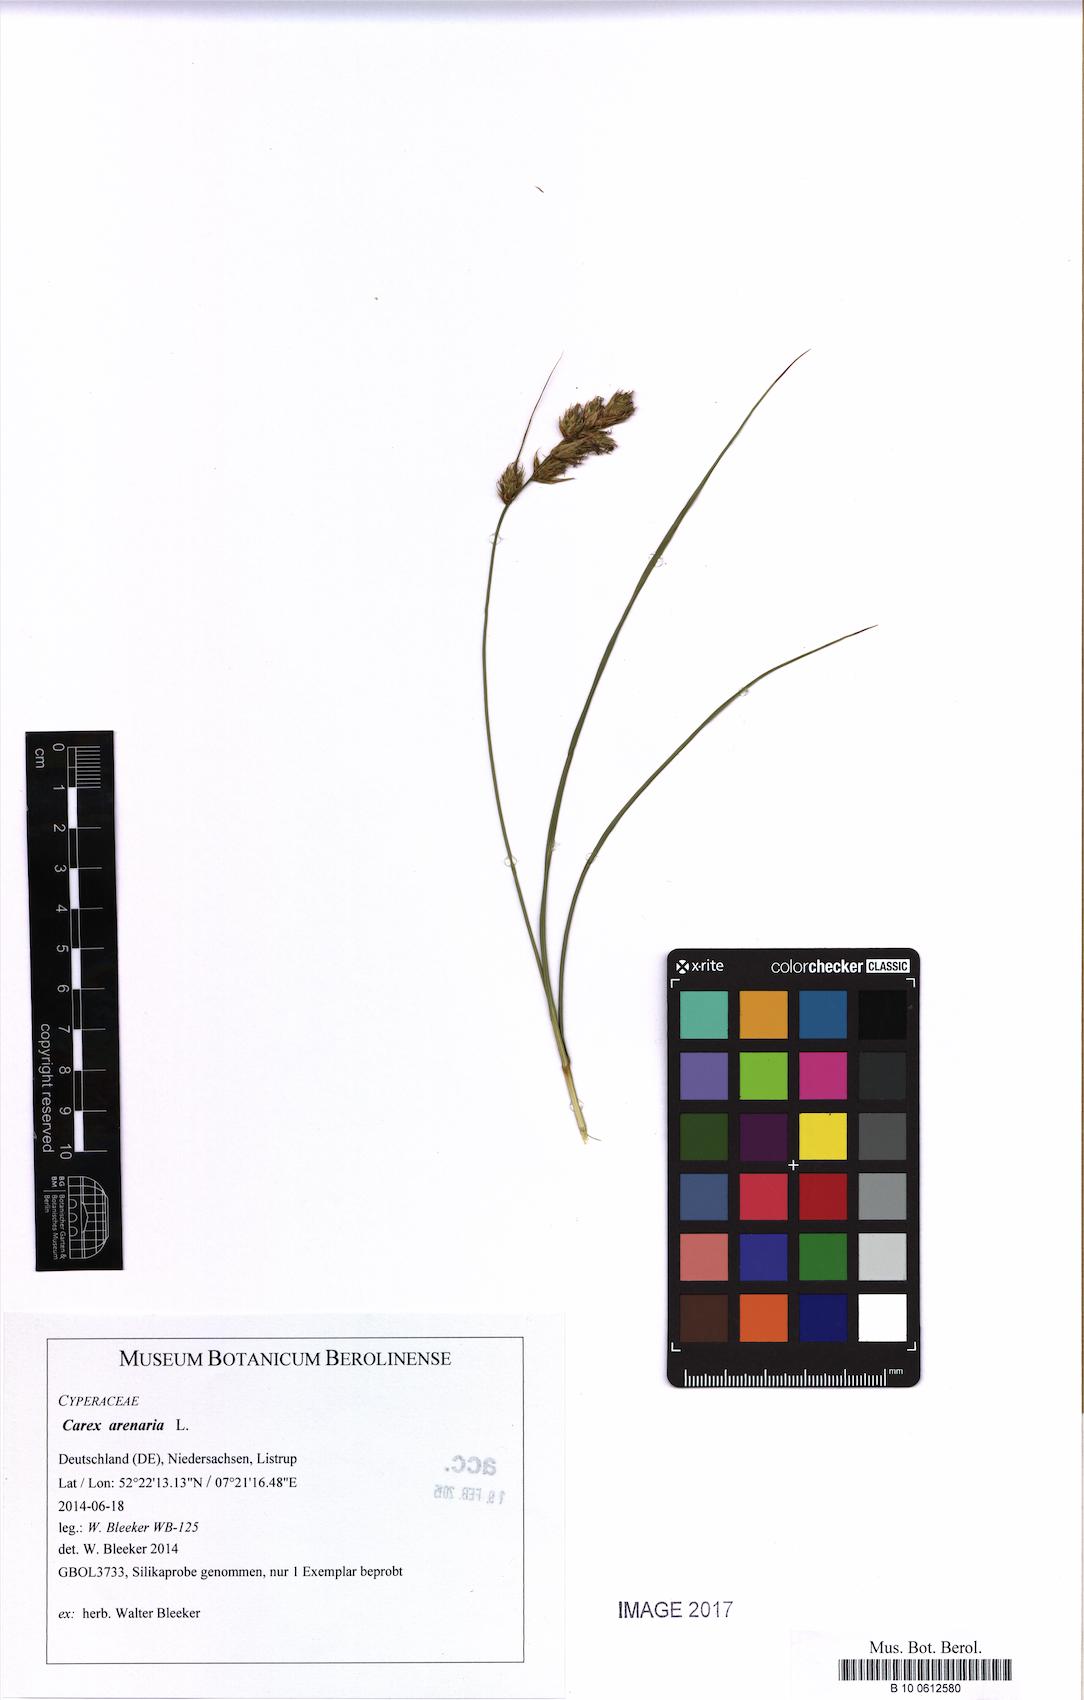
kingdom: Plantae
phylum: Tracheophyta
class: Liliopsida
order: Poales
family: Cyperaceae
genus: Carex
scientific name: Carex arenaria
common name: Sand sedge
